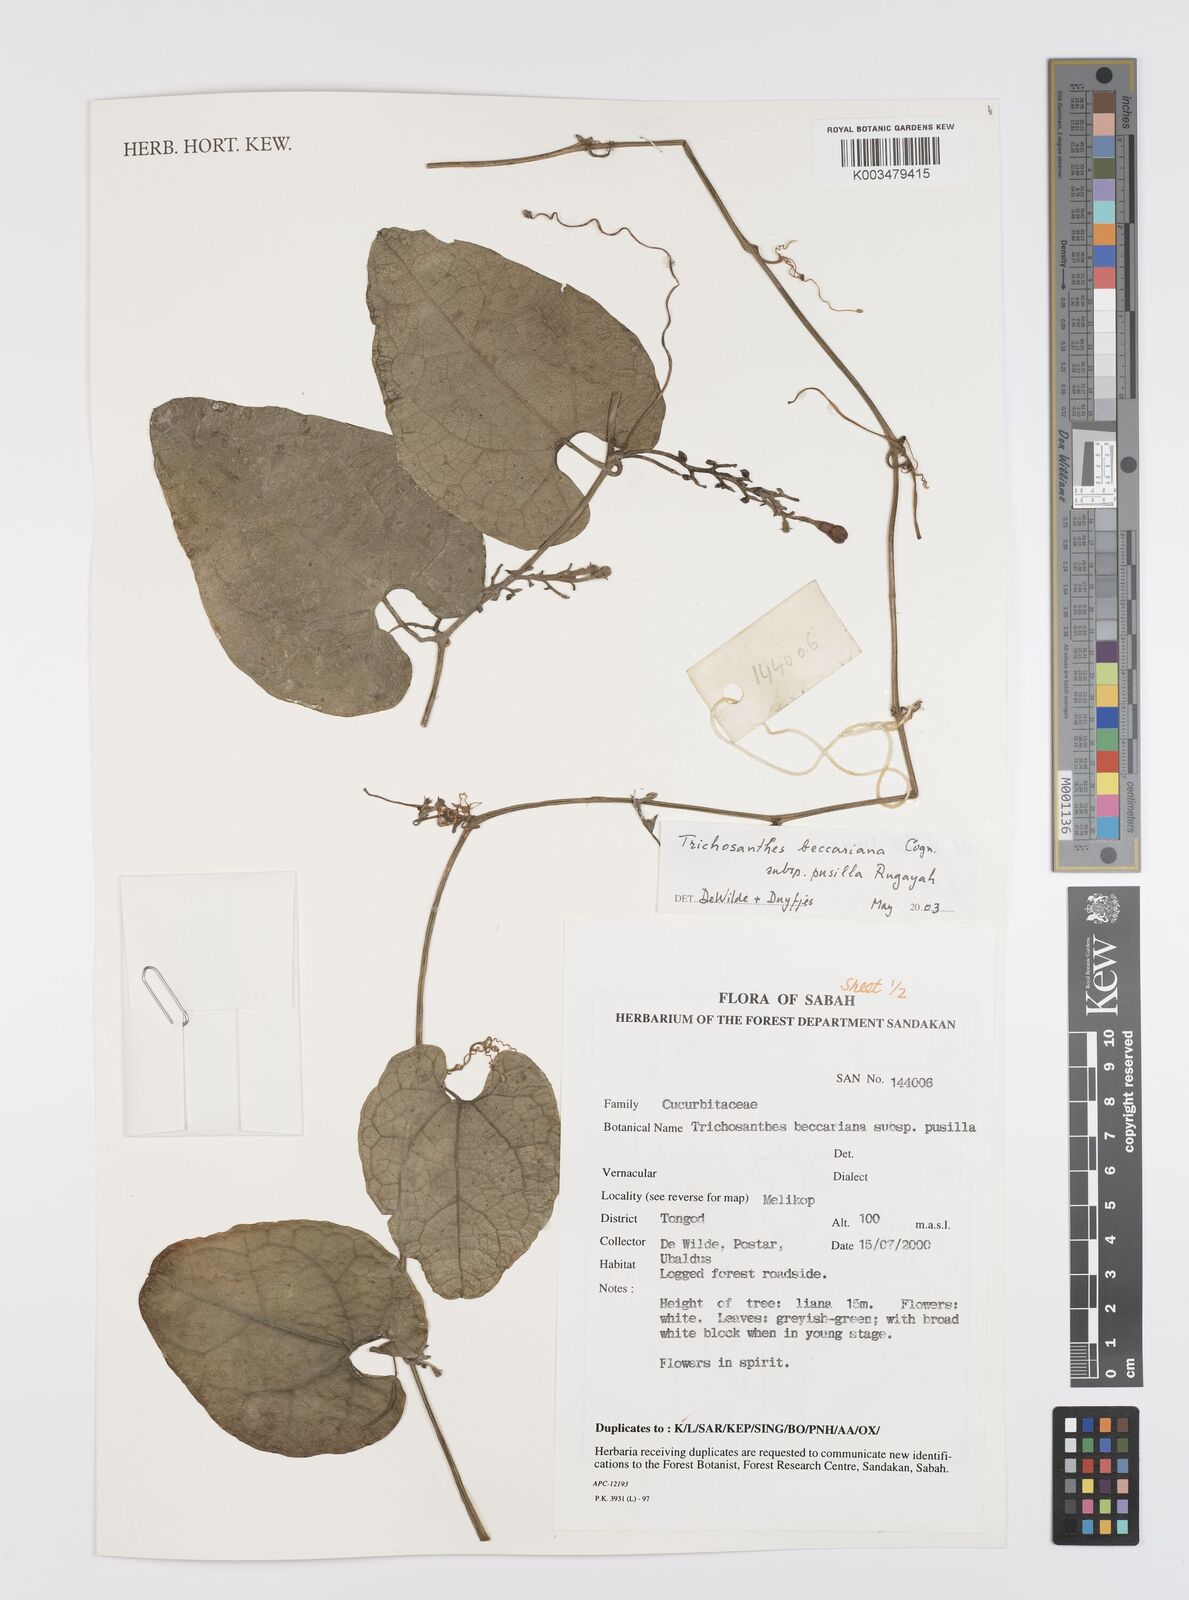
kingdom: Plantae
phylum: Tracheophyta
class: Magnoliopsida
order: Cucurbitales
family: Cucurbitaceae
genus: Trichosanthes
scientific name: Trichosanthes beccariana
